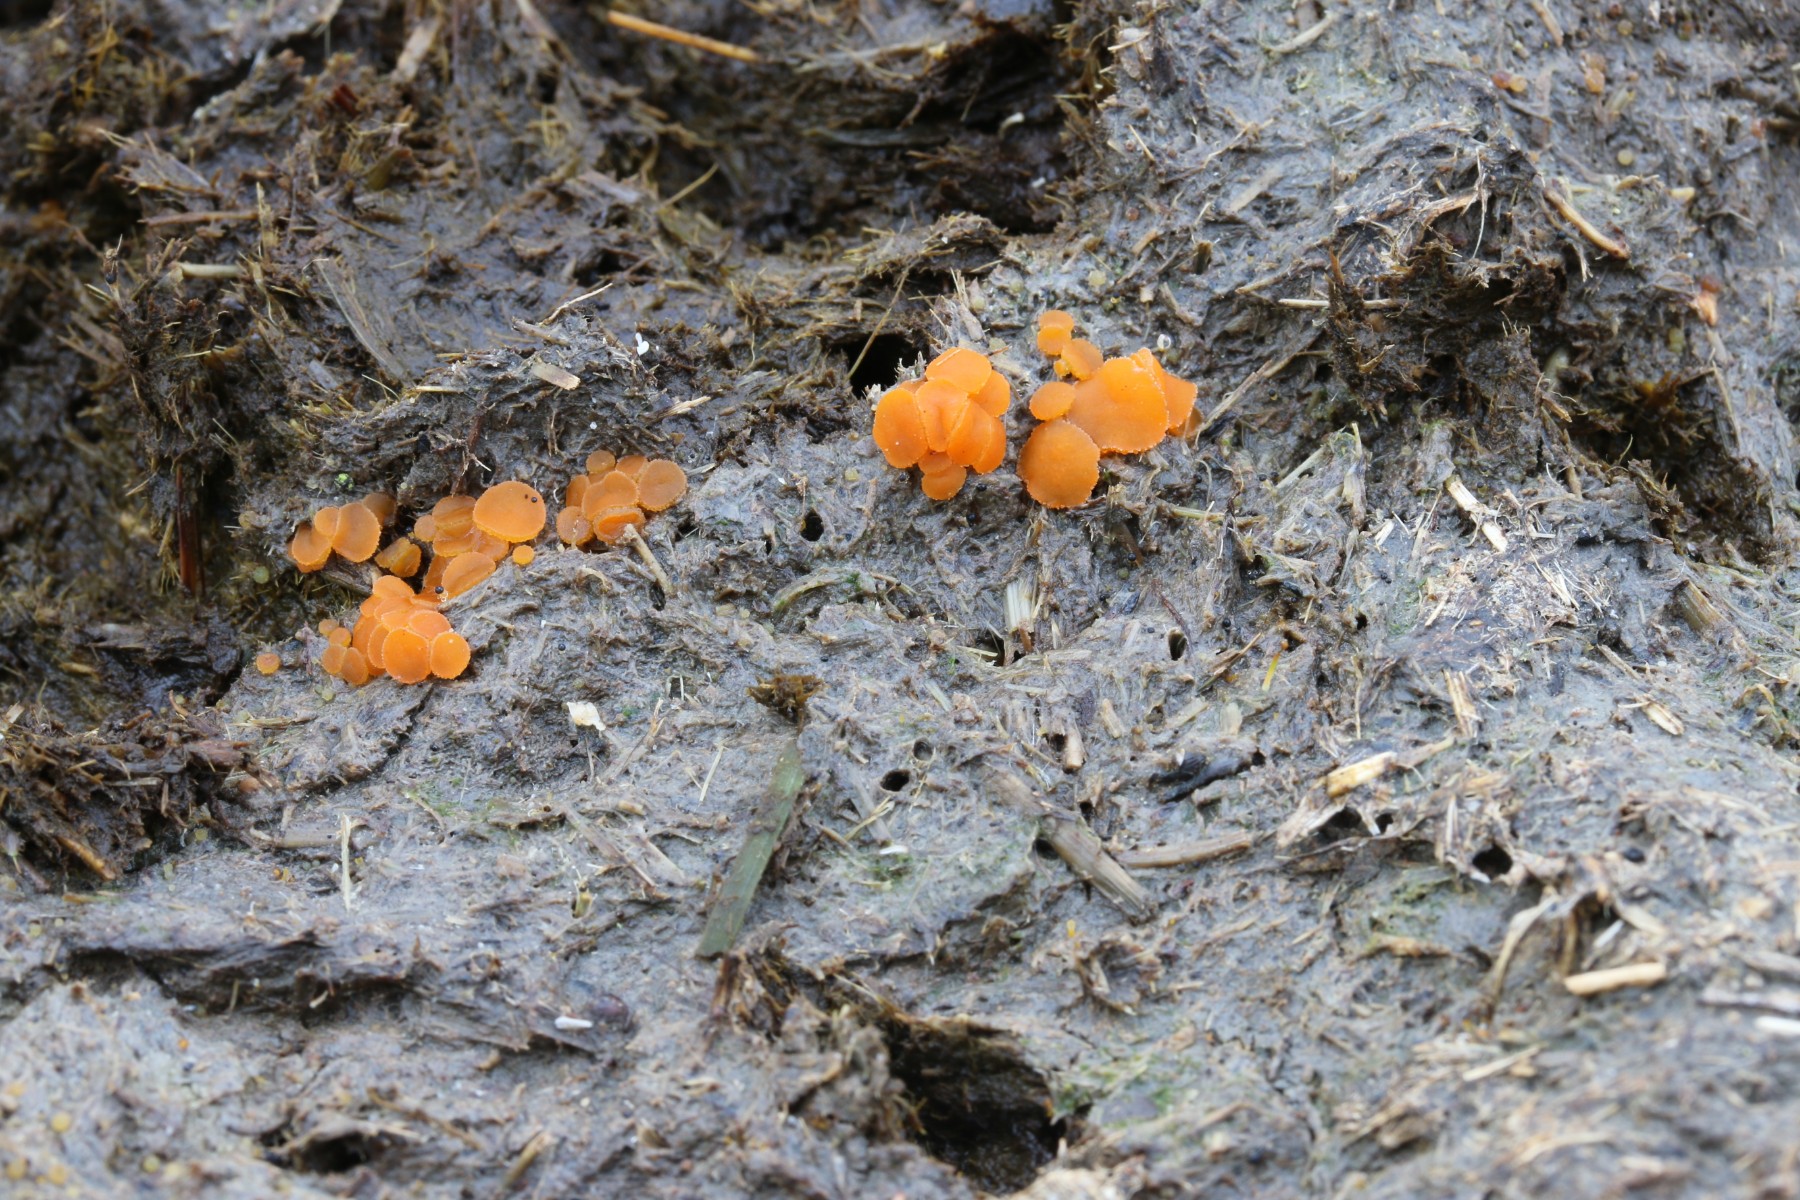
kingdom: Fungi
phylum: Ascomycota
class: Pezizomycetes
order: Pezizales
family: Pyronemataceae
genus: Cheilymenia
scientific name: Cheilymenia granulata
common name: møgbæger
